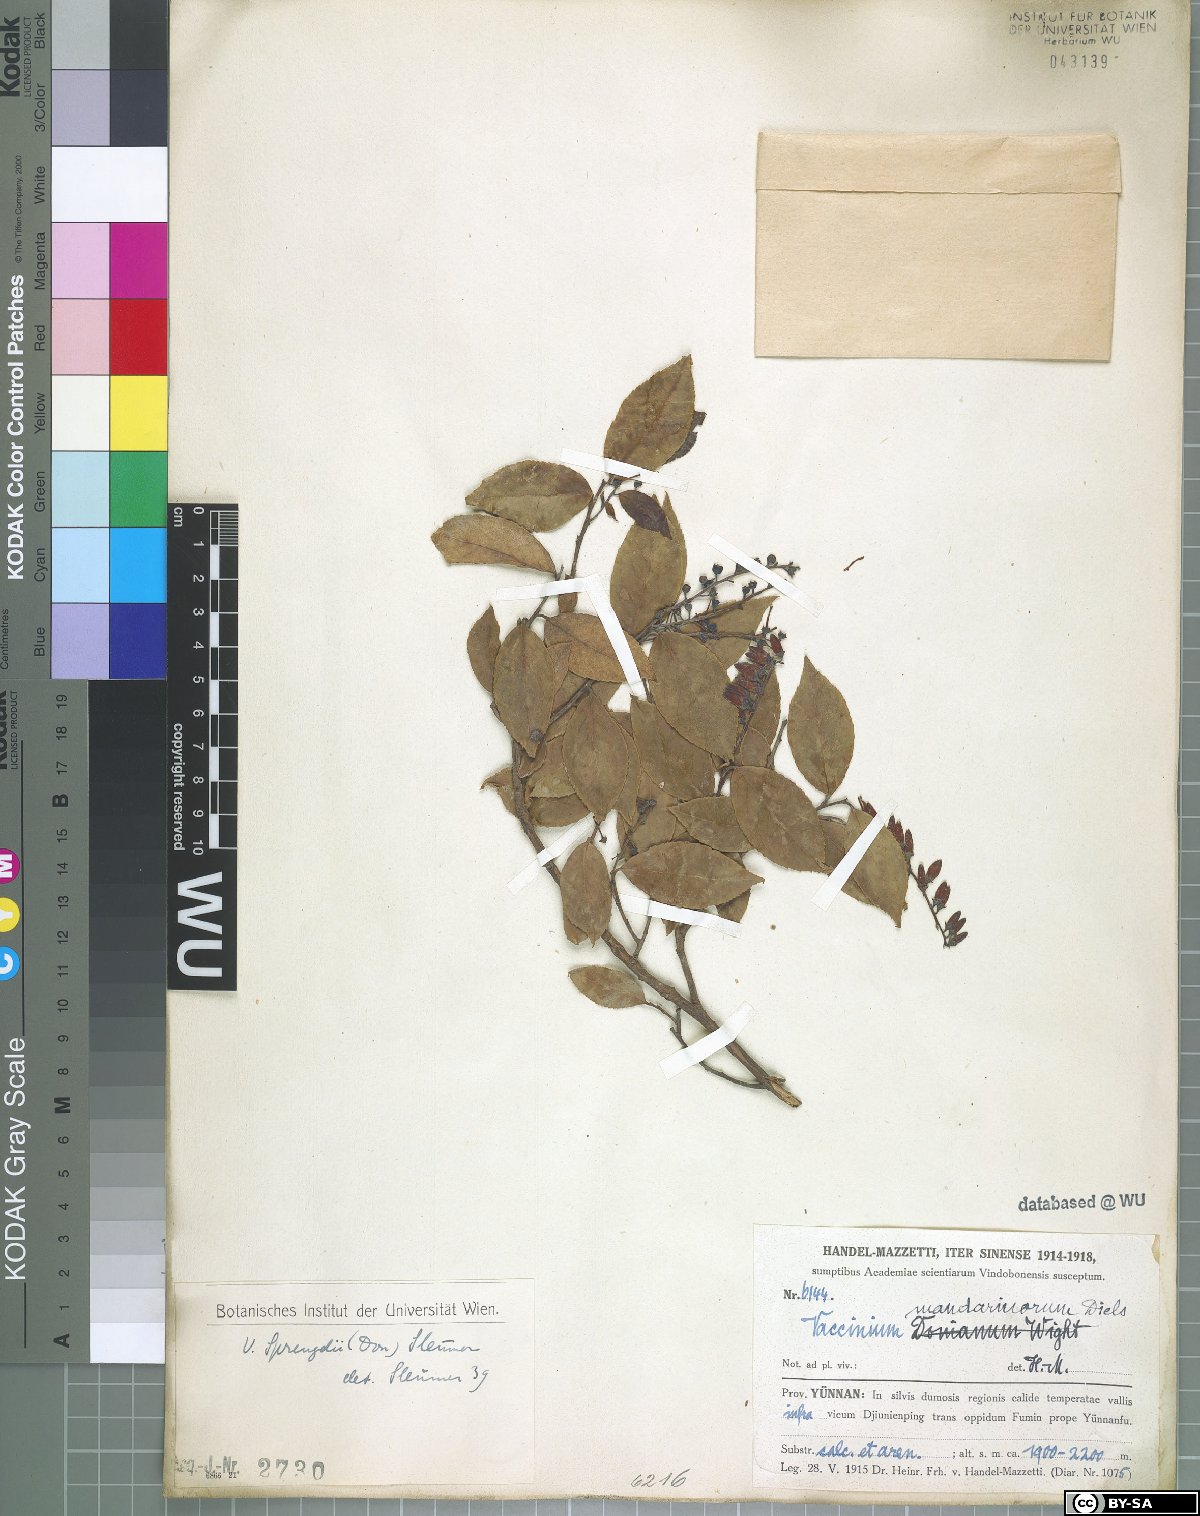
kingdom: Plantae
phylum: Tracheophyta
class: Magnoliopsida
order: Ericales
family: Ericaceae
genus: Vaccinium
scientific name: Vaccinium sprengelii
